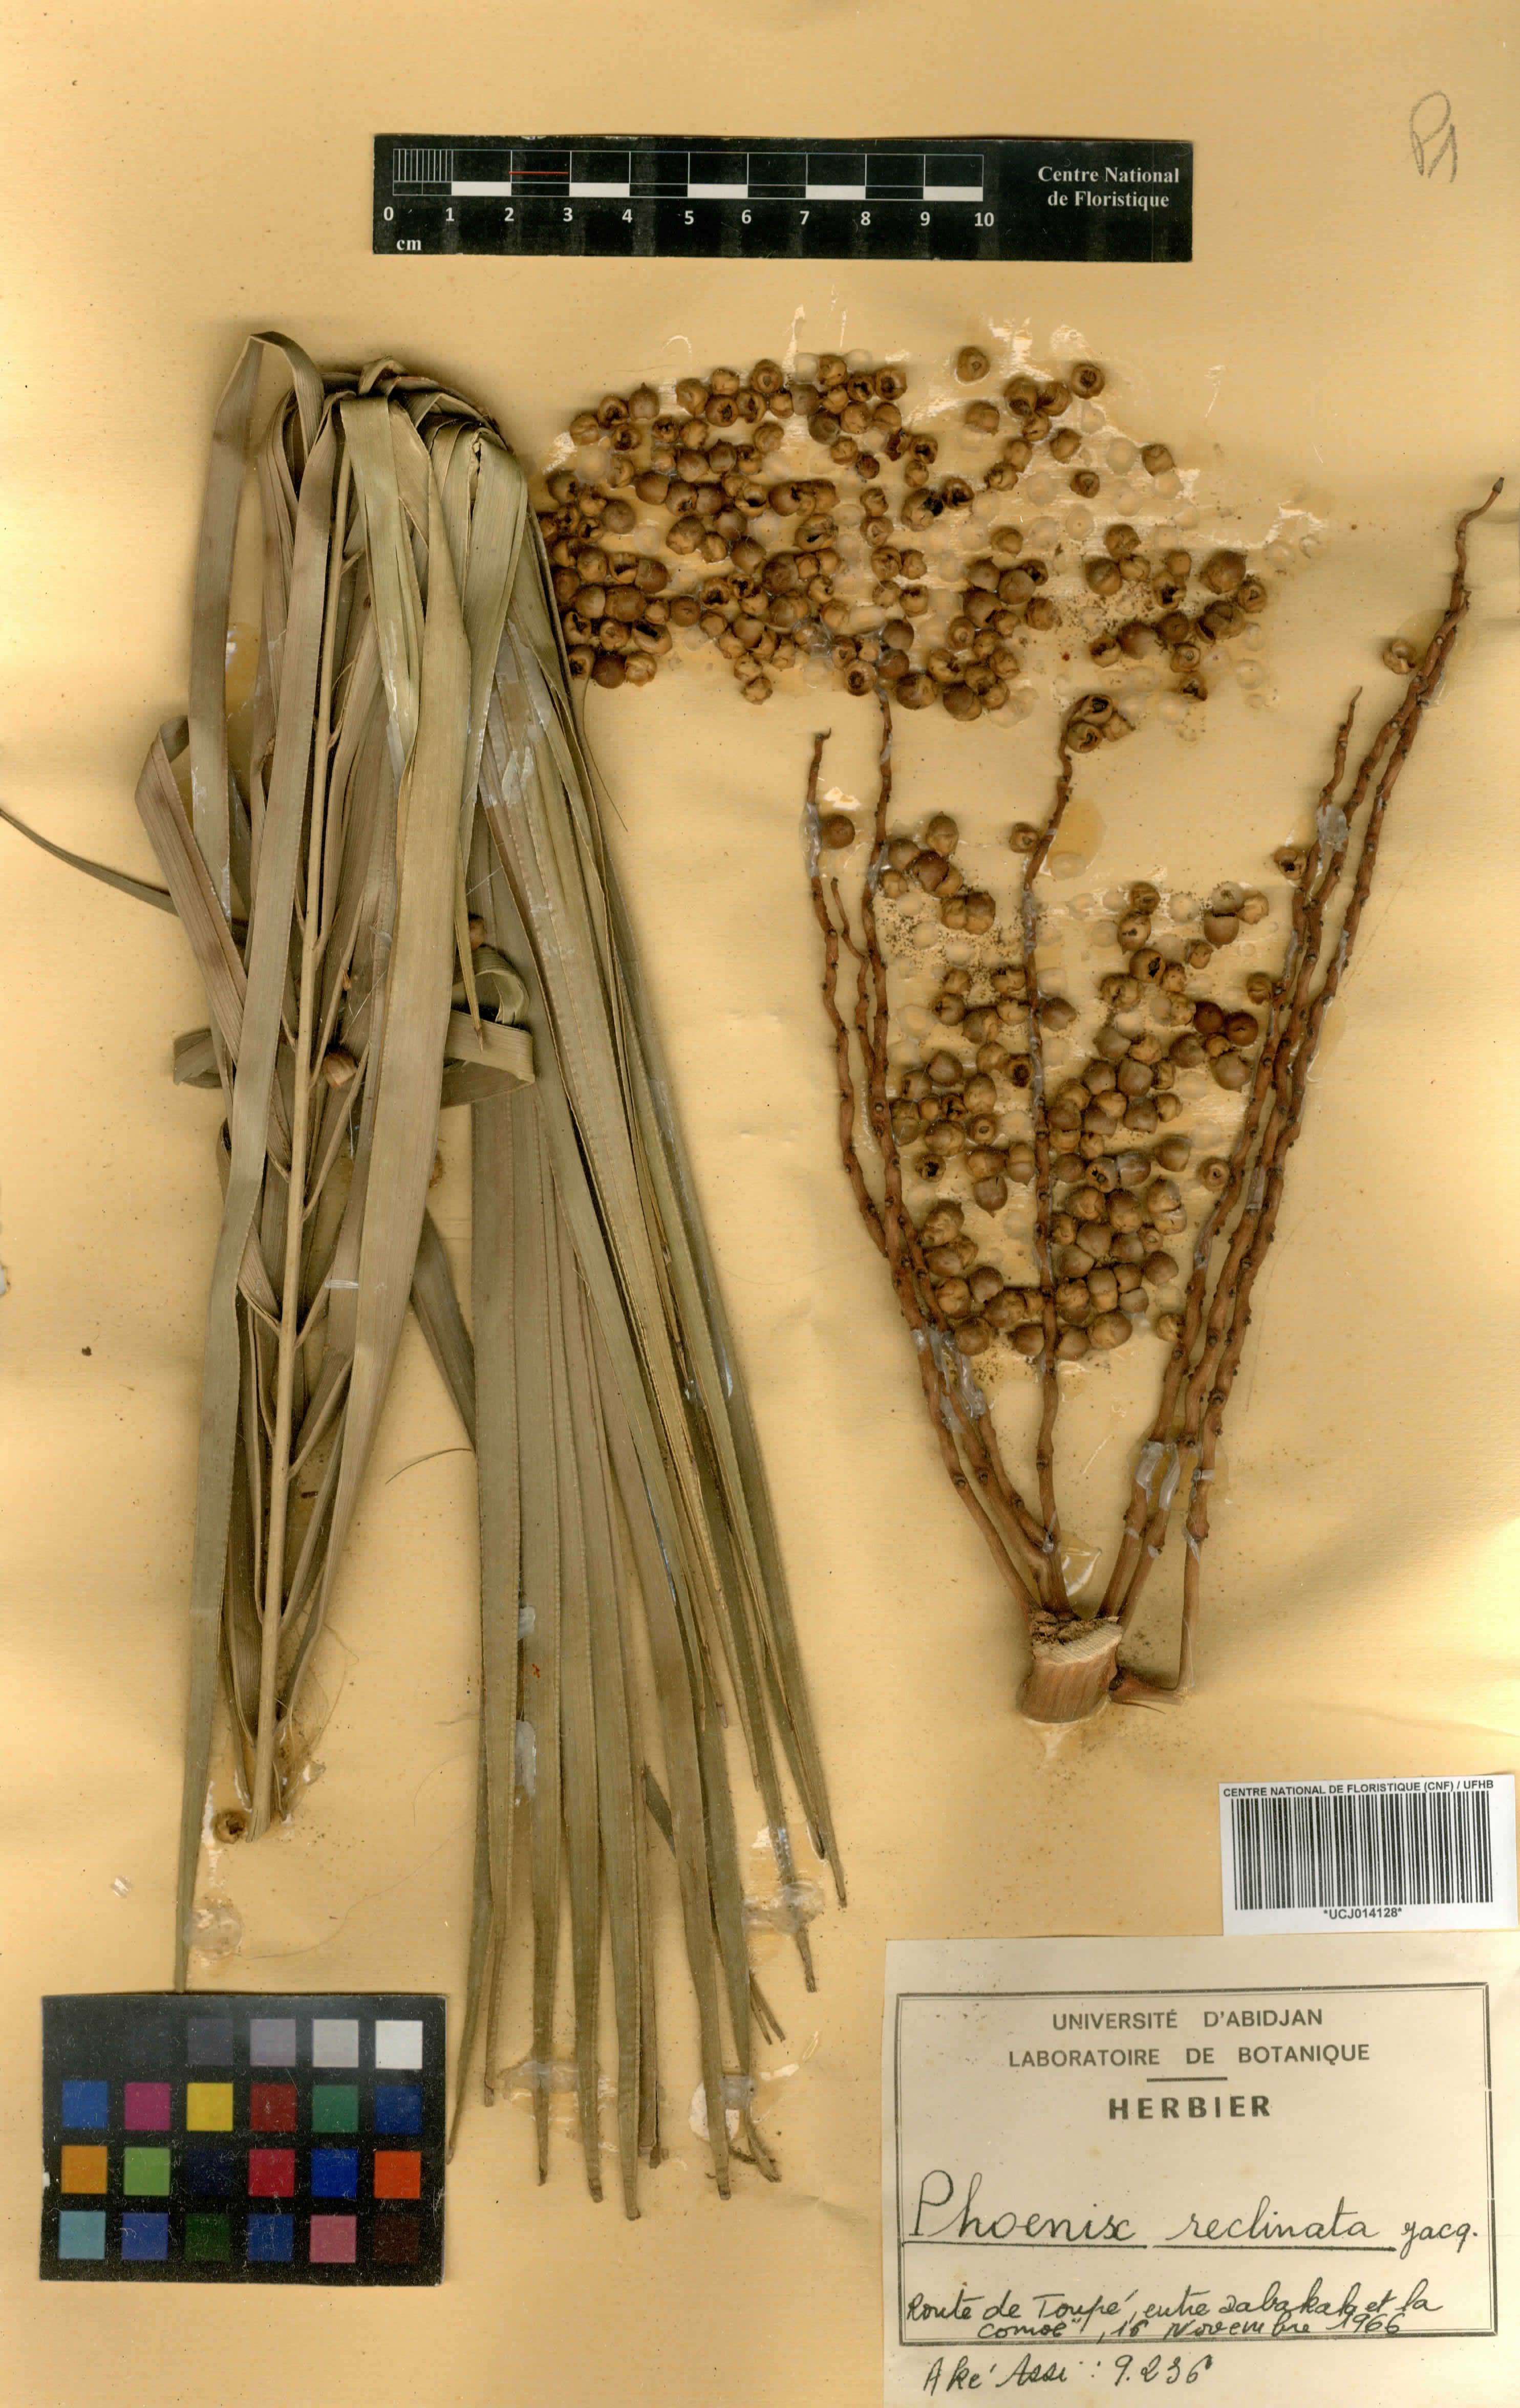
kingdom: Plantae
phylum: Tracheophyta
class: Liliopsida
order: Arecales
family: Arecaceae
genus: Phoenix
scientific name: Phoenix reclinata
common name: Senegal date palm
